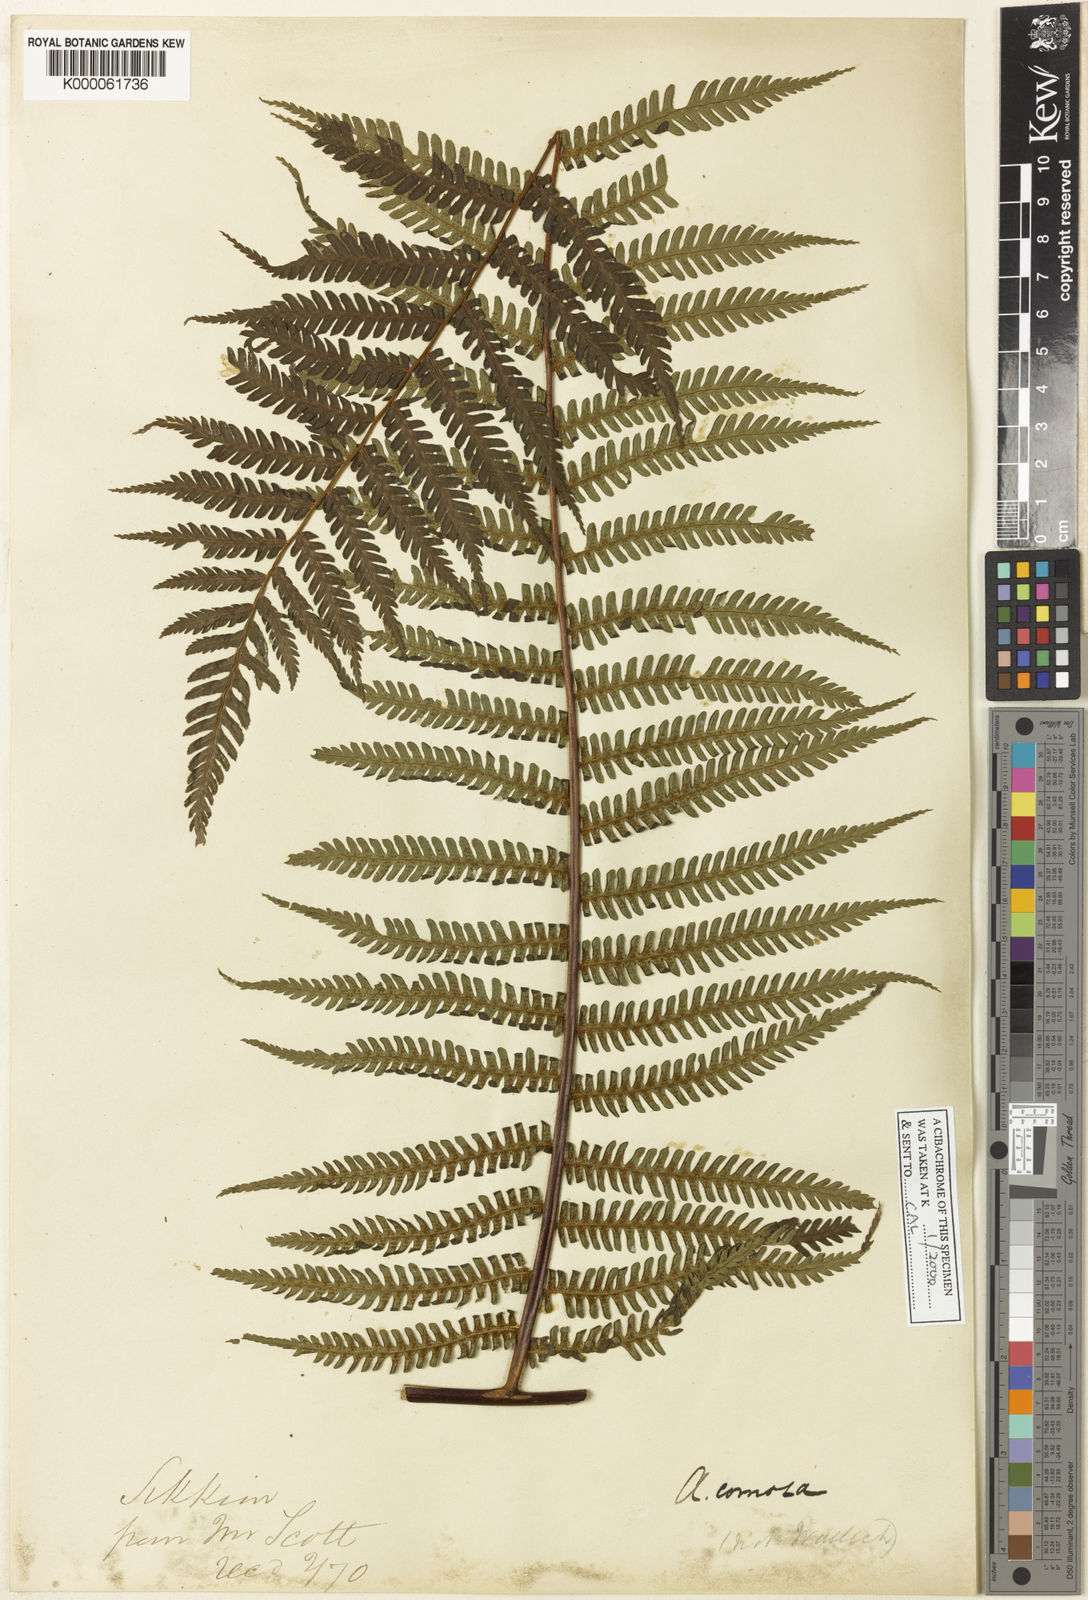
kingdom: Plantae
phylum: Tracheophyta
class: Polypodiopsida
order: Cyatheales
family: Cyatheaceae
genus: Gymnosphaera
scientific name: Gymnosphaera khasyana
